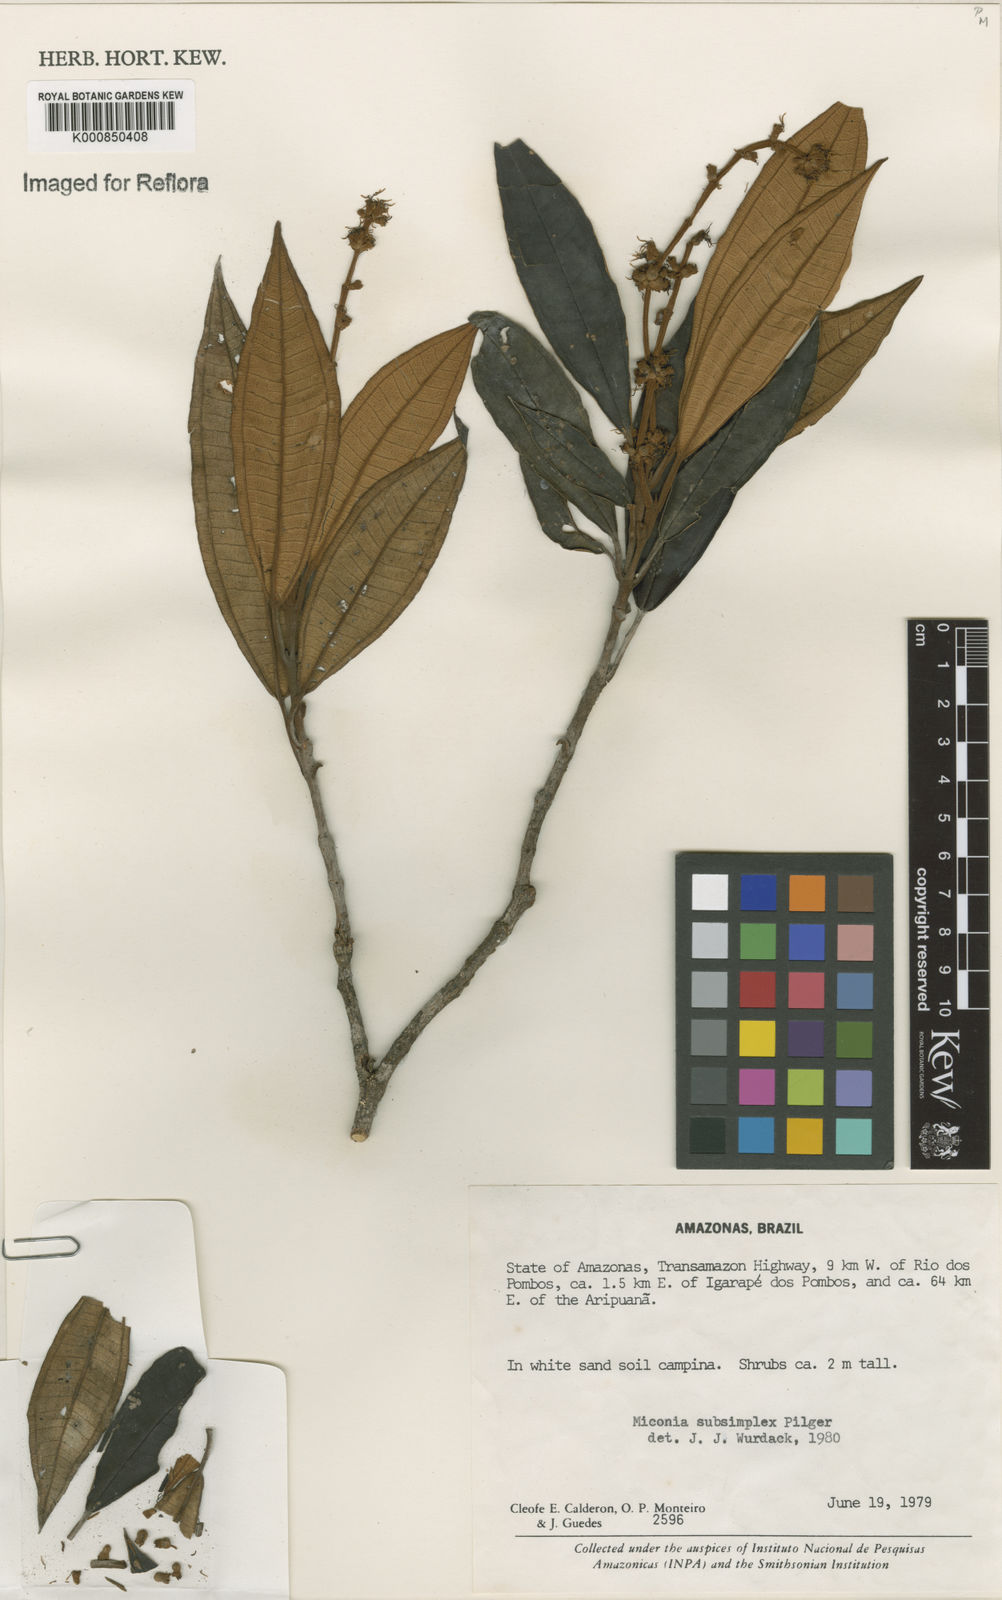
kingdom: Plantae
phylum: Tracheophyta
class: Magnoliopsida
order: Myrtales
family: Melastomataceae
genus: Miconia
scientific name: Miconia subsimplex
